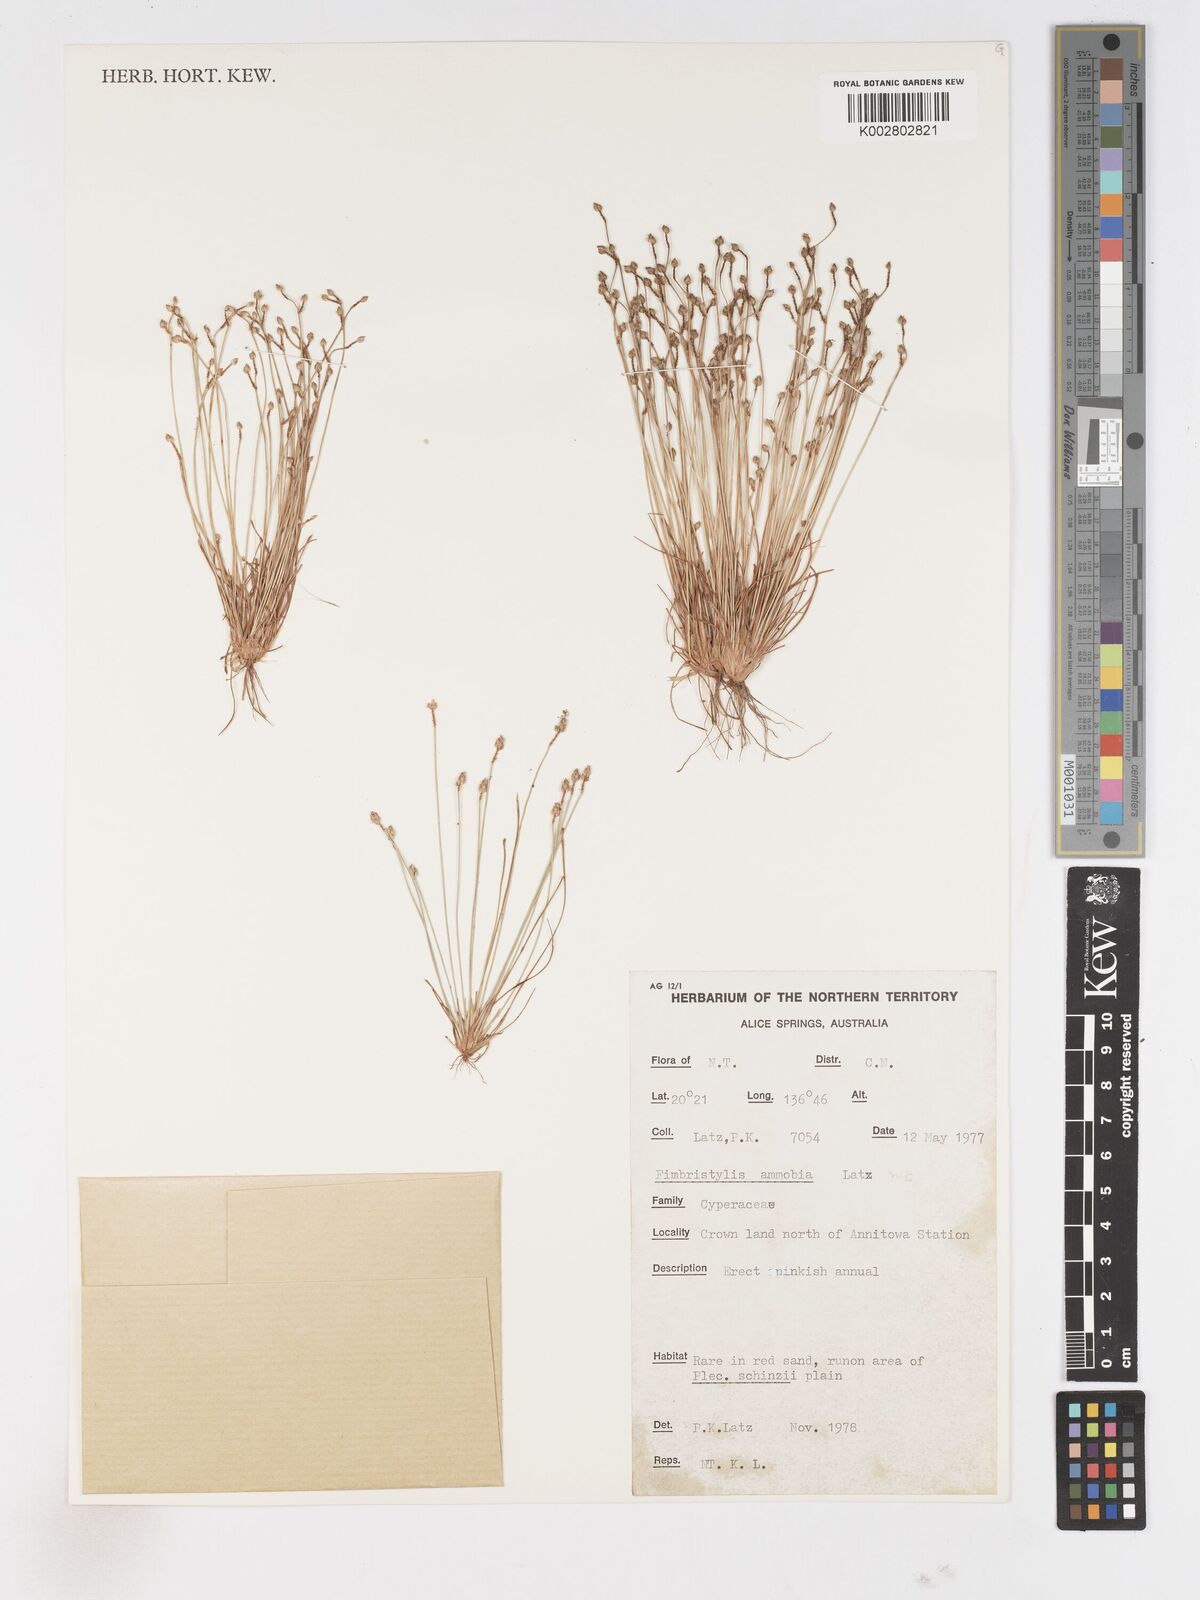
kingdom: Plantae
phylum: Tracheophyta
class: Liliopsida
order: Poales
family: Cyperaceae
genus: Fimbristylis
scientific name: Fimbristylis ammobia
